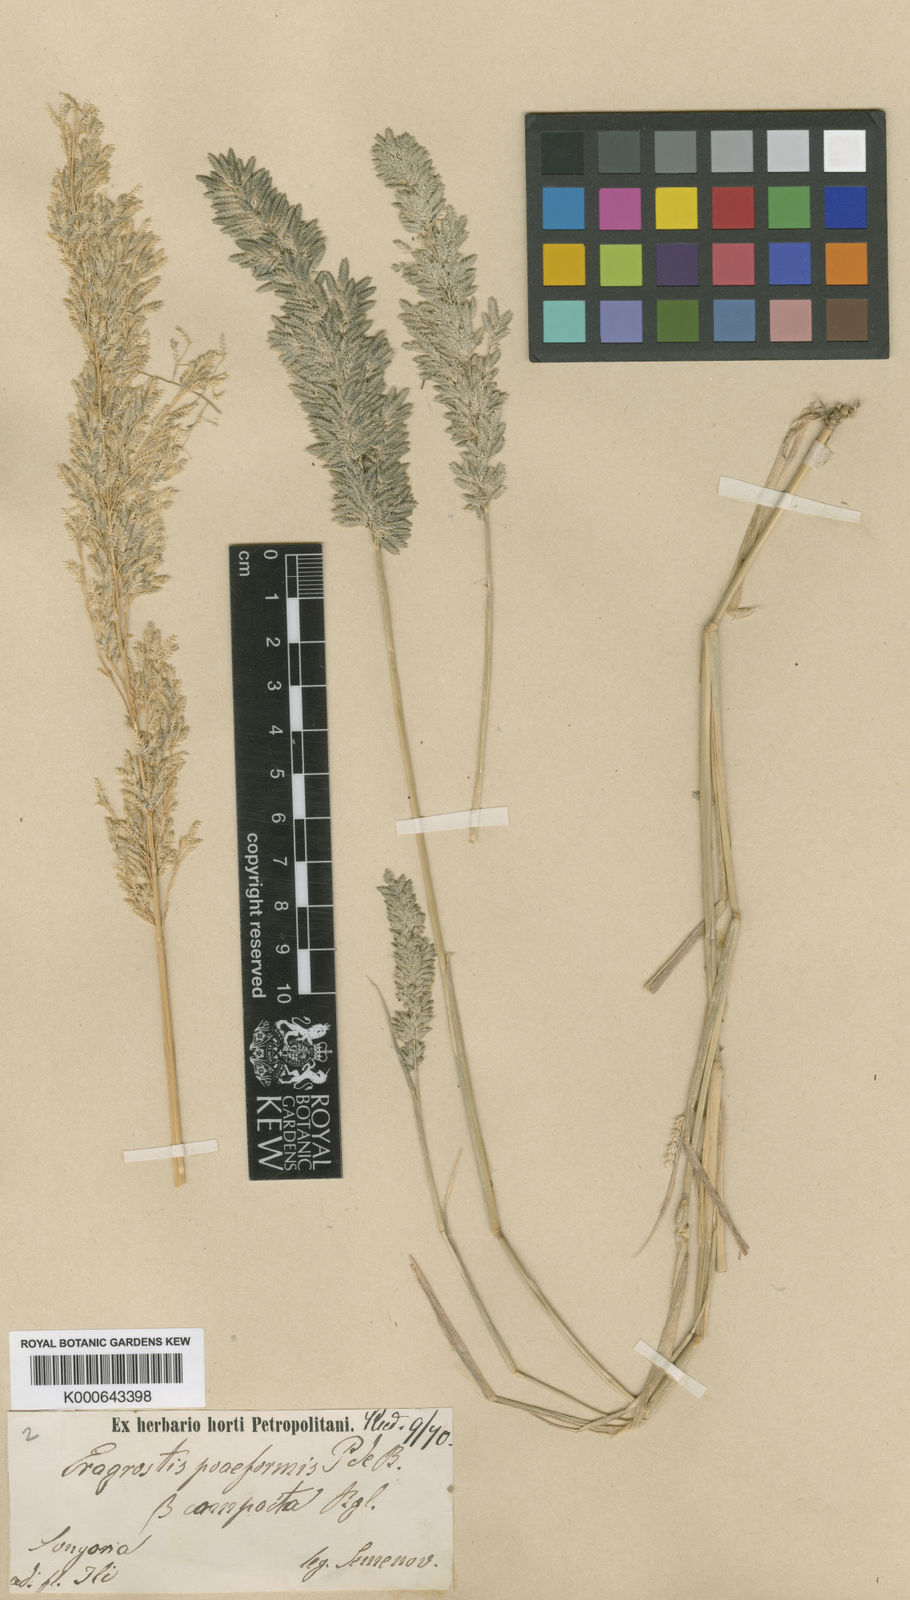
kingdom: Plantae
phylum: Tracheophyta
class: Liliopsida
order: Poales
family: Poaceae
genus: Eragrostis
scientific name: Eragrostis cilianensis
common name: Stinkgrass
